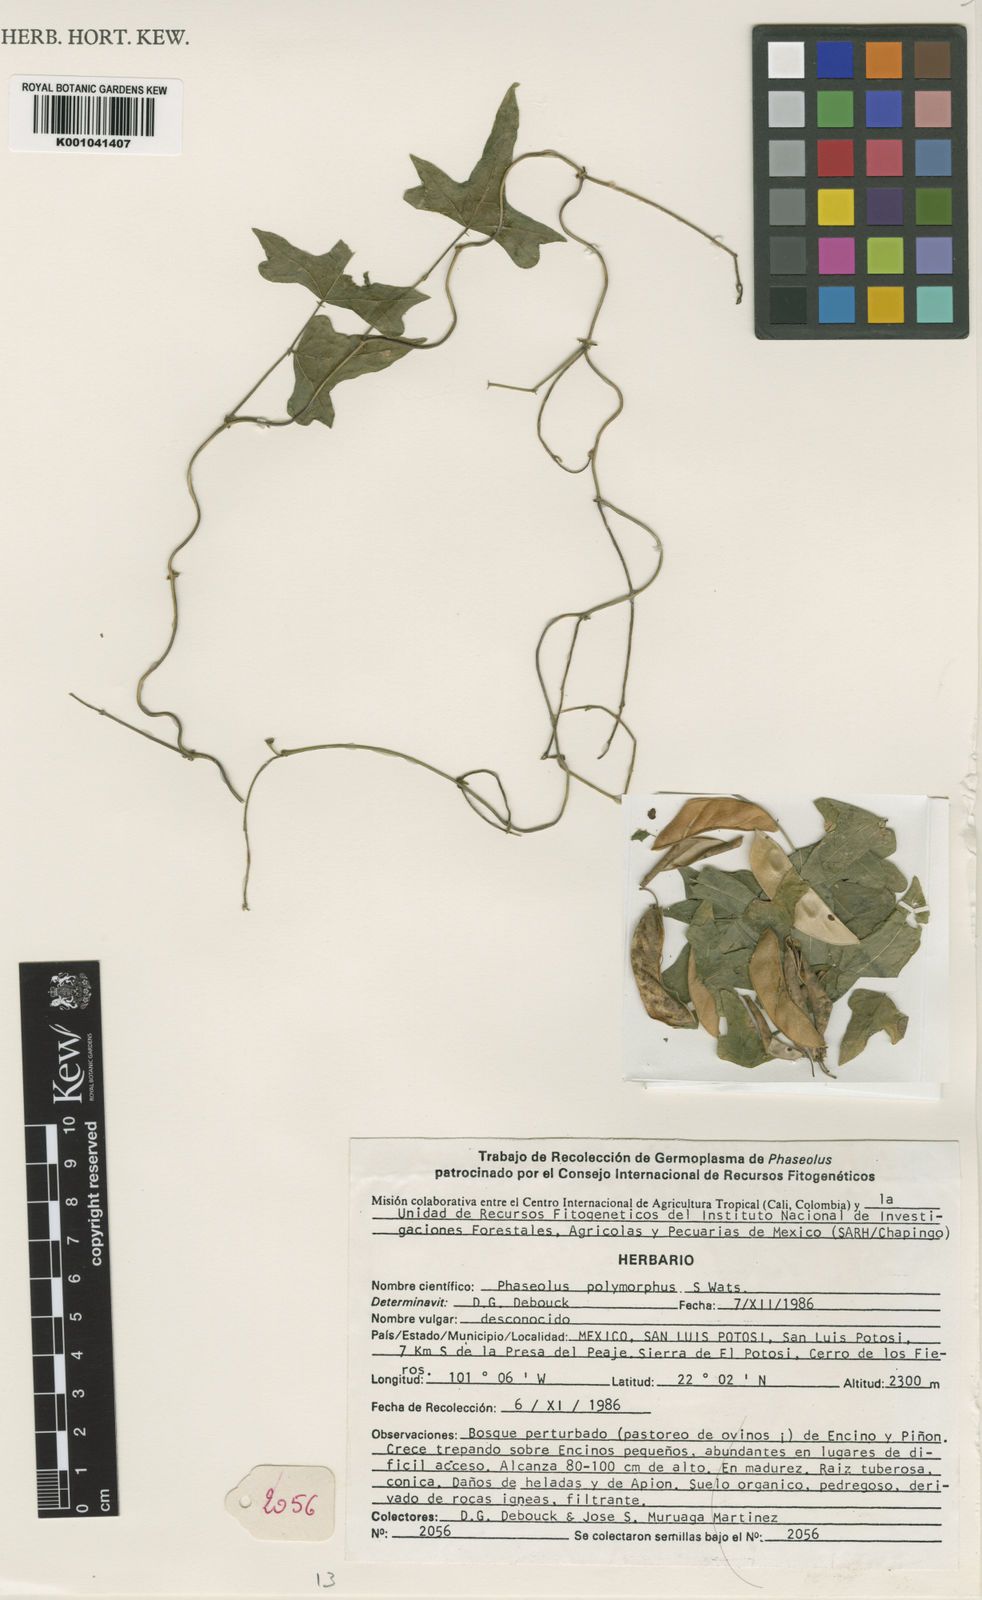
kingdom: Plantae
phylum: Tracheophyta
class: Magnoliopsida
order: Fabales
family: Fabaceae
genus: Phaseolus
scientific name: Phaseolus pedicellatus
